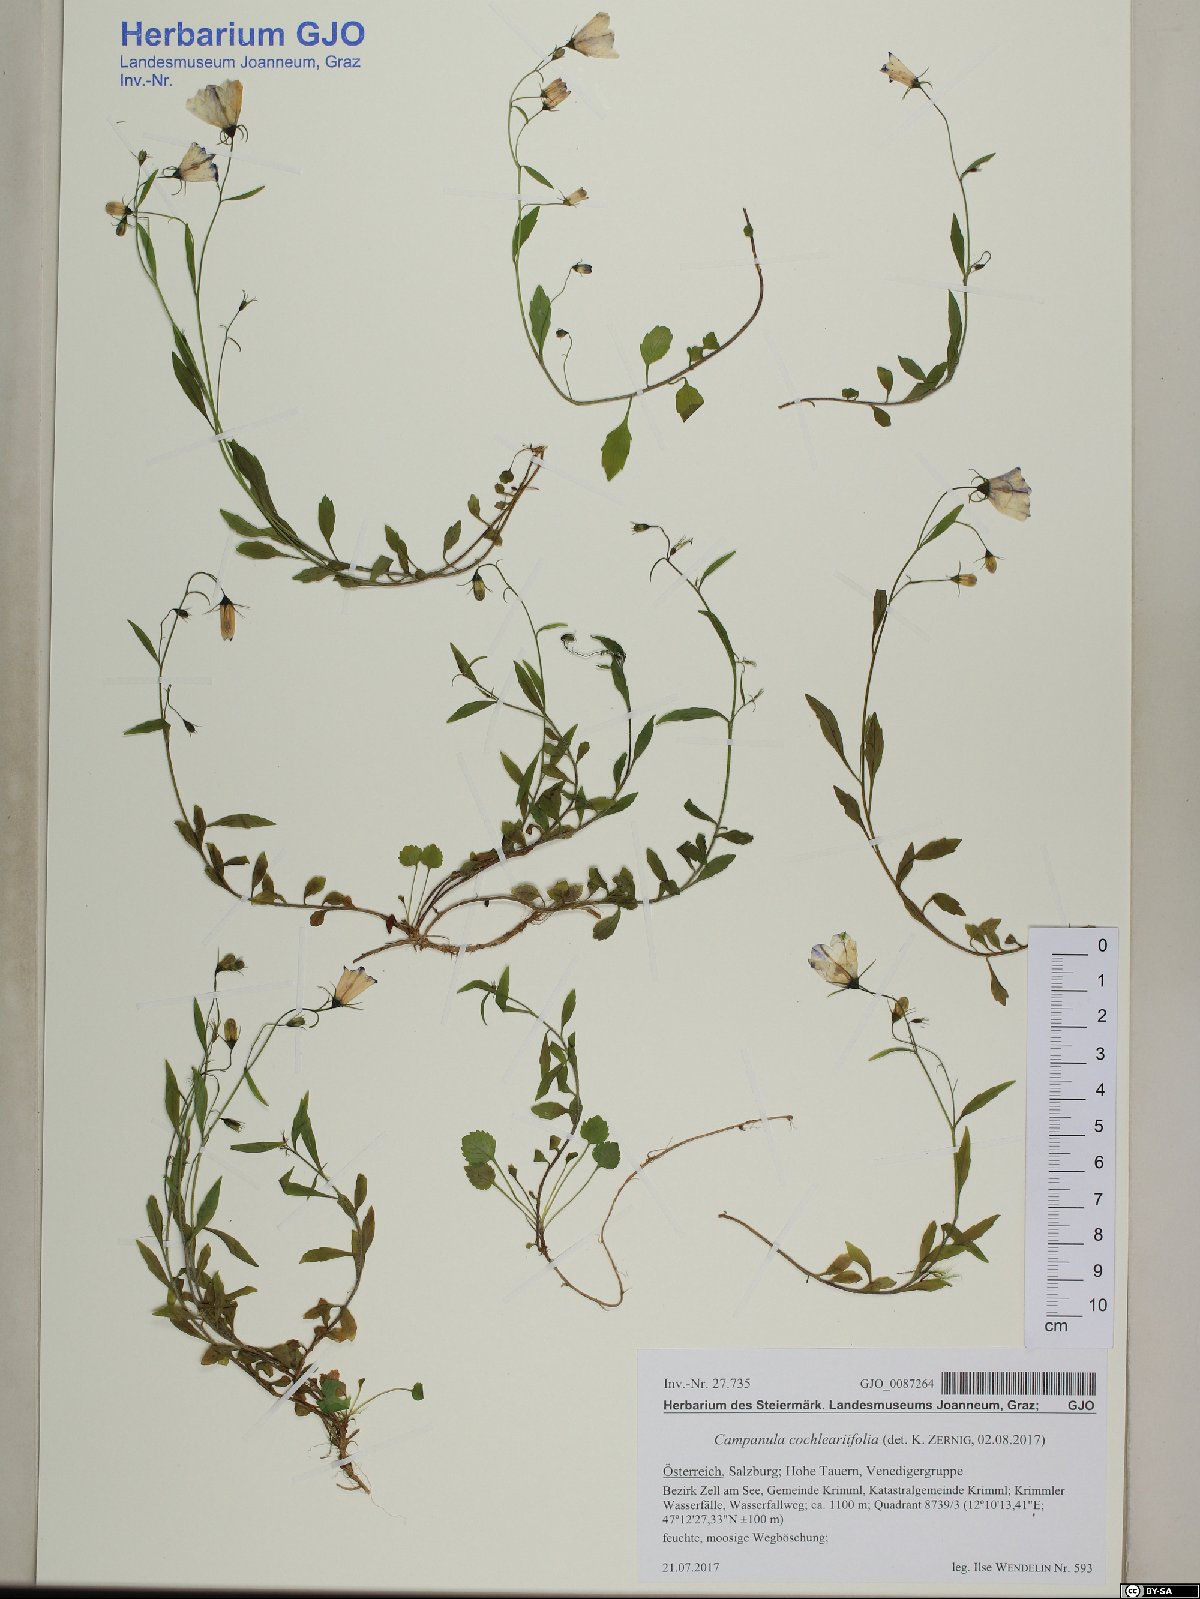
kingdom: Plantae
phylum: Tracheophyta
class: Magnoliopsida
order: Asterales
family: Campanulaceae
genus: Campanula
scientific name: Campanula cochleariifolia
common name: Fairies'-thimbles
